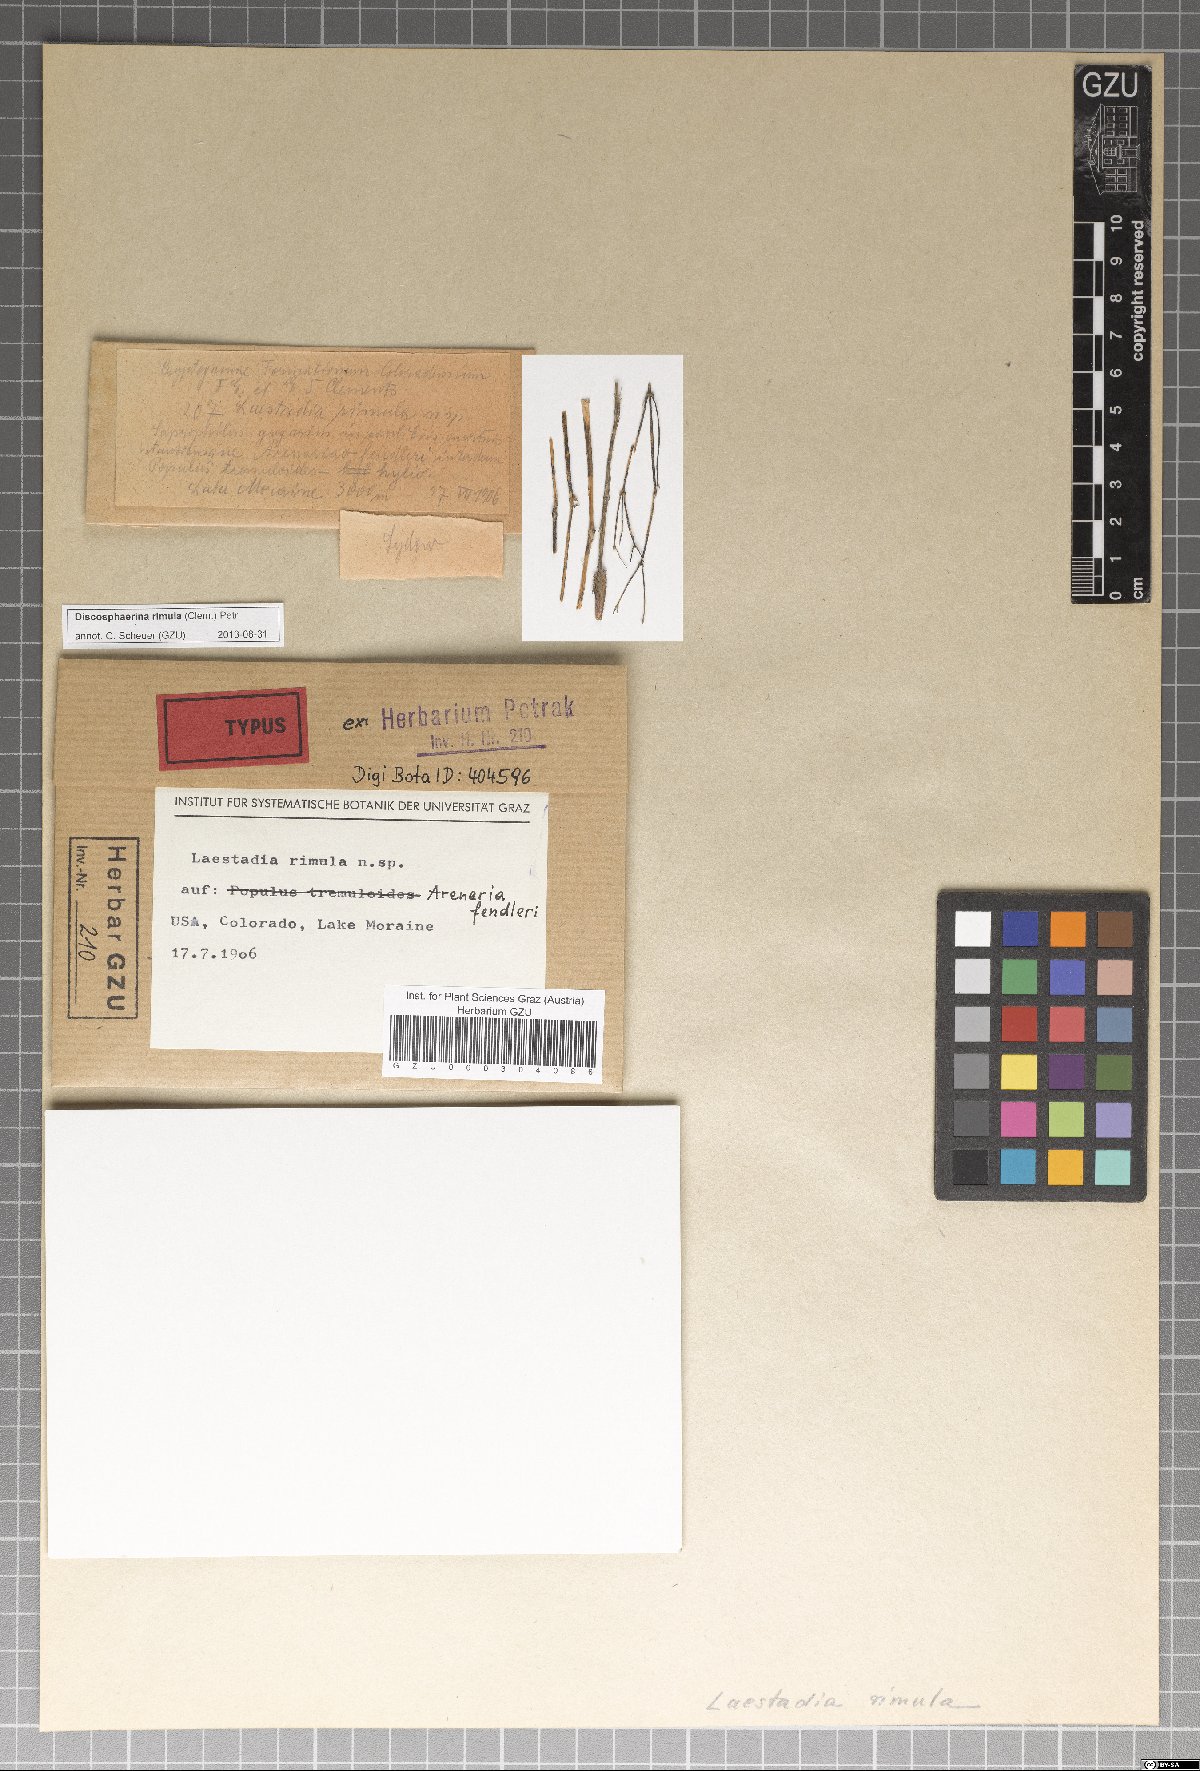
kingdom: Fungi
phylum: Ascomycota
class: Sordariomycetes
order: Diaporthales
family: Gnomoniaceae
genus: Laestadia
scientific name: Laestadia
